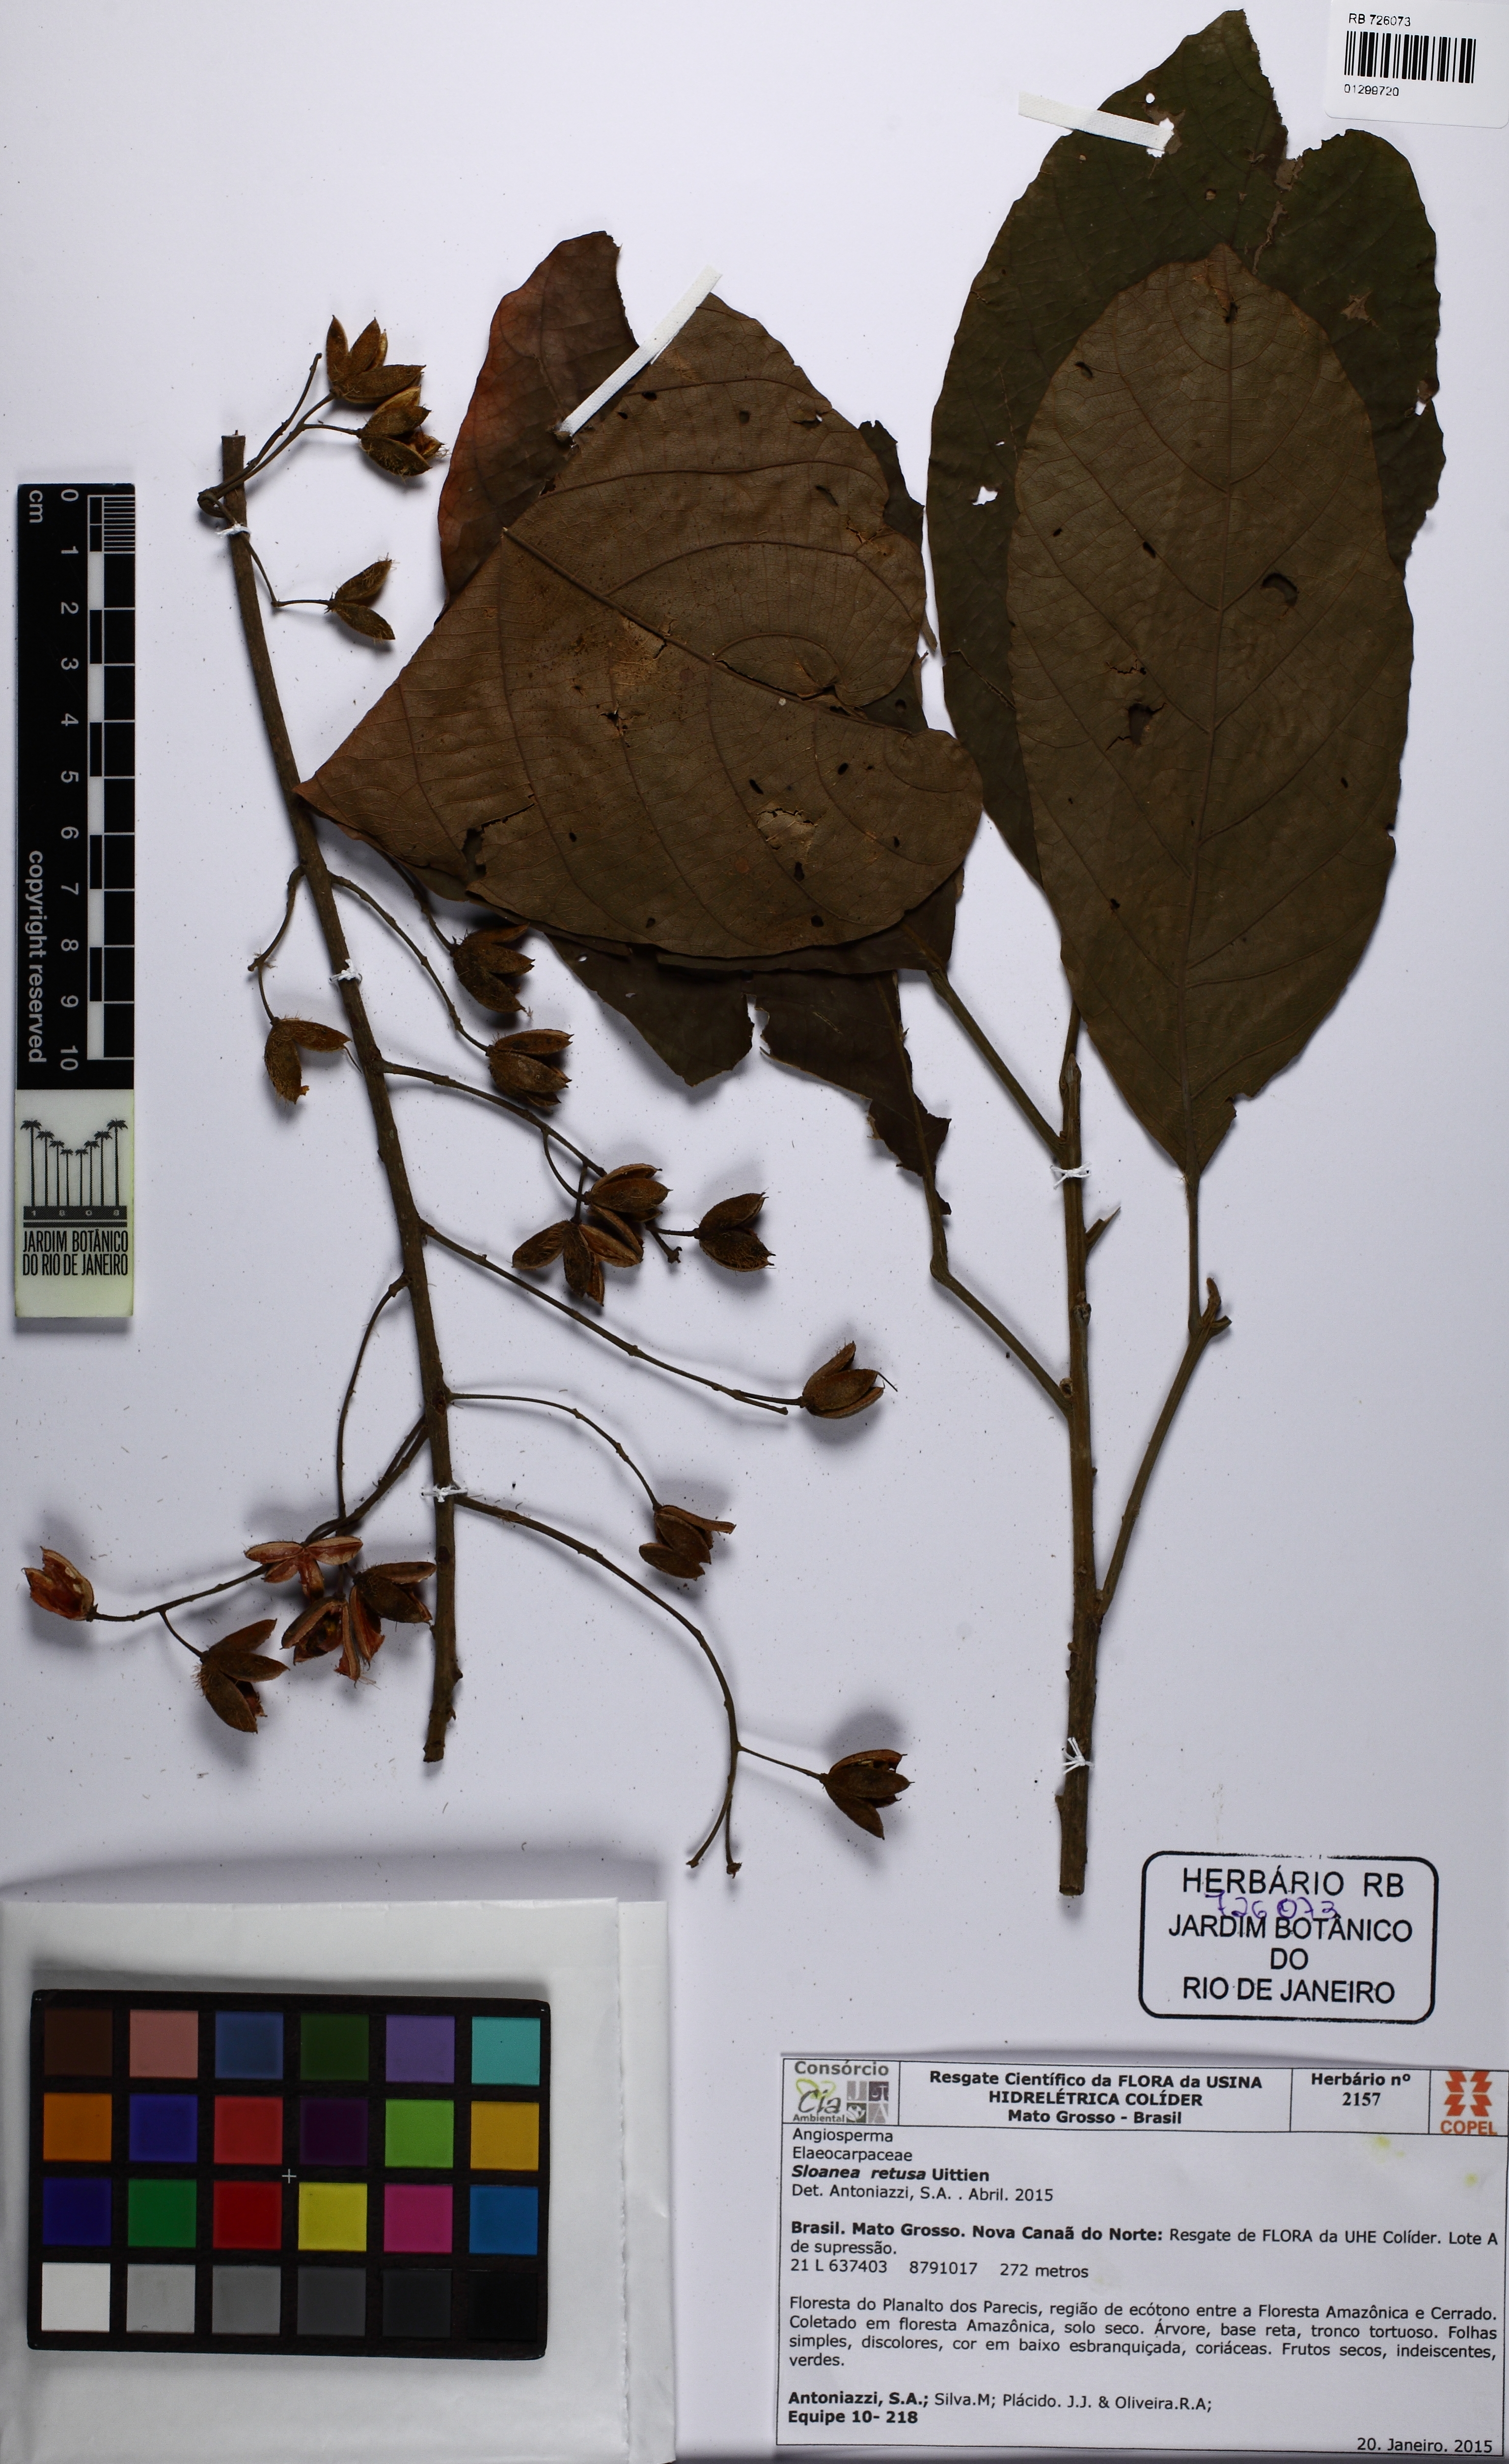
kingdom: Plantae
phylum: Tracheophyta
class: Magnoliopsida
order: Oxalidales
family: Elaeocarpaceae
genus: Sloanea
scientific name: Sloanea retusa
